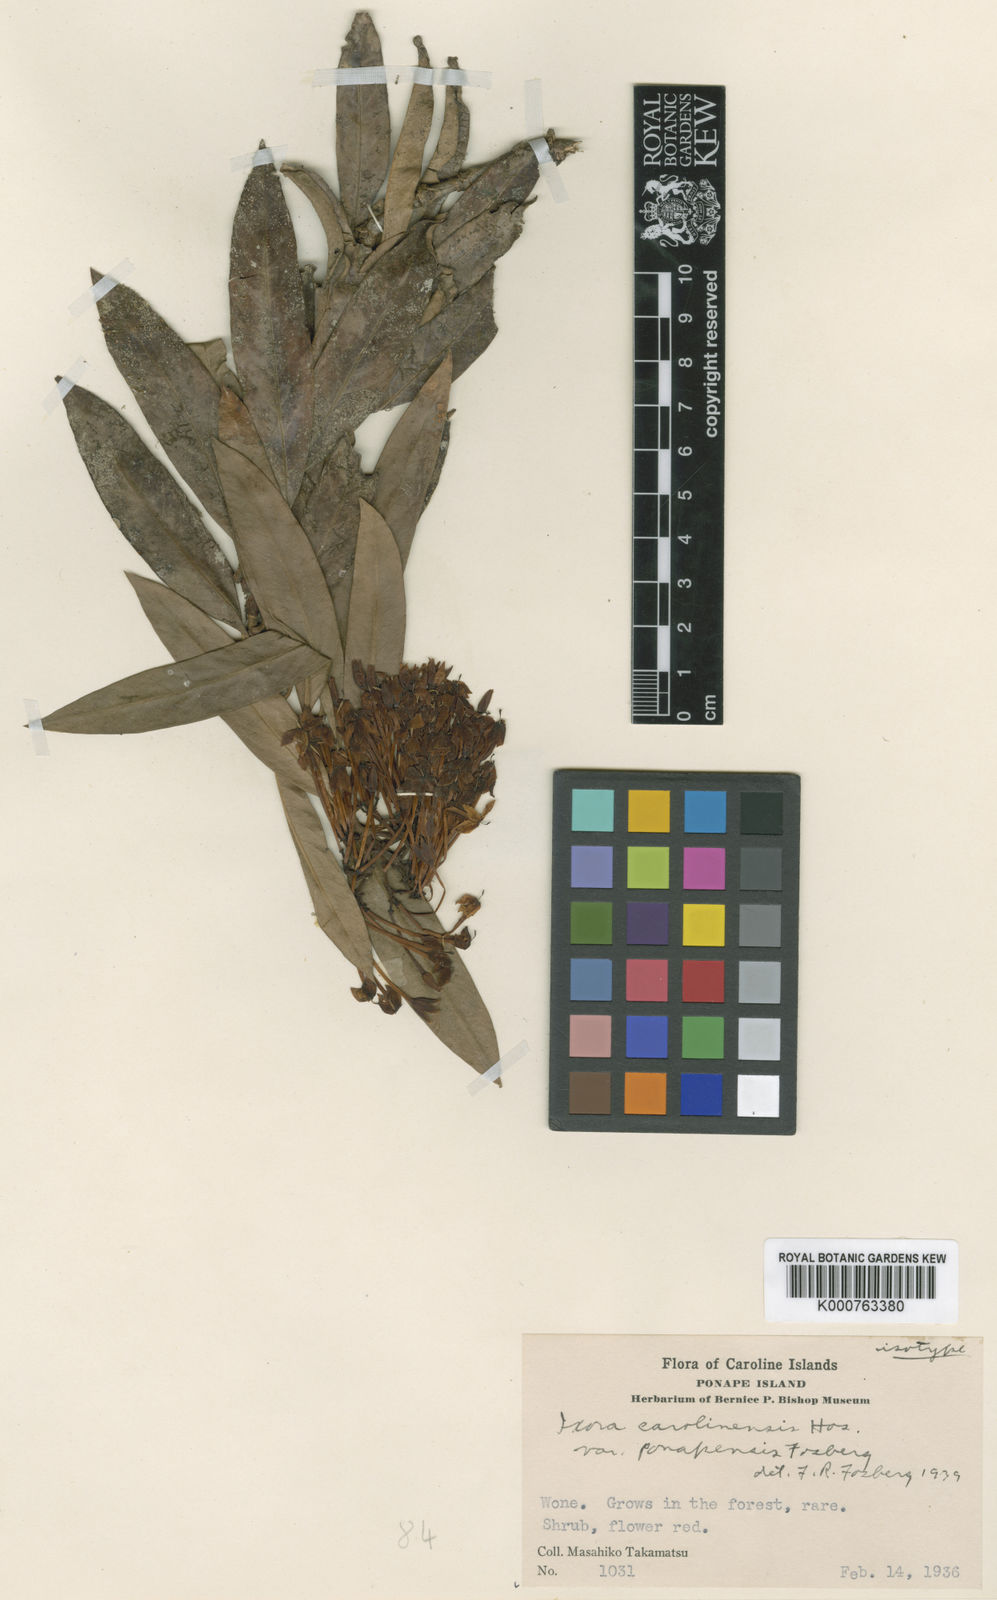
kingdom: Plantae
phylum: Tracheophyta
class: Magnoliopsida
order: Gentianales
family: Rubiaceae
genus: Ixora
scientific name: Ixora casei
